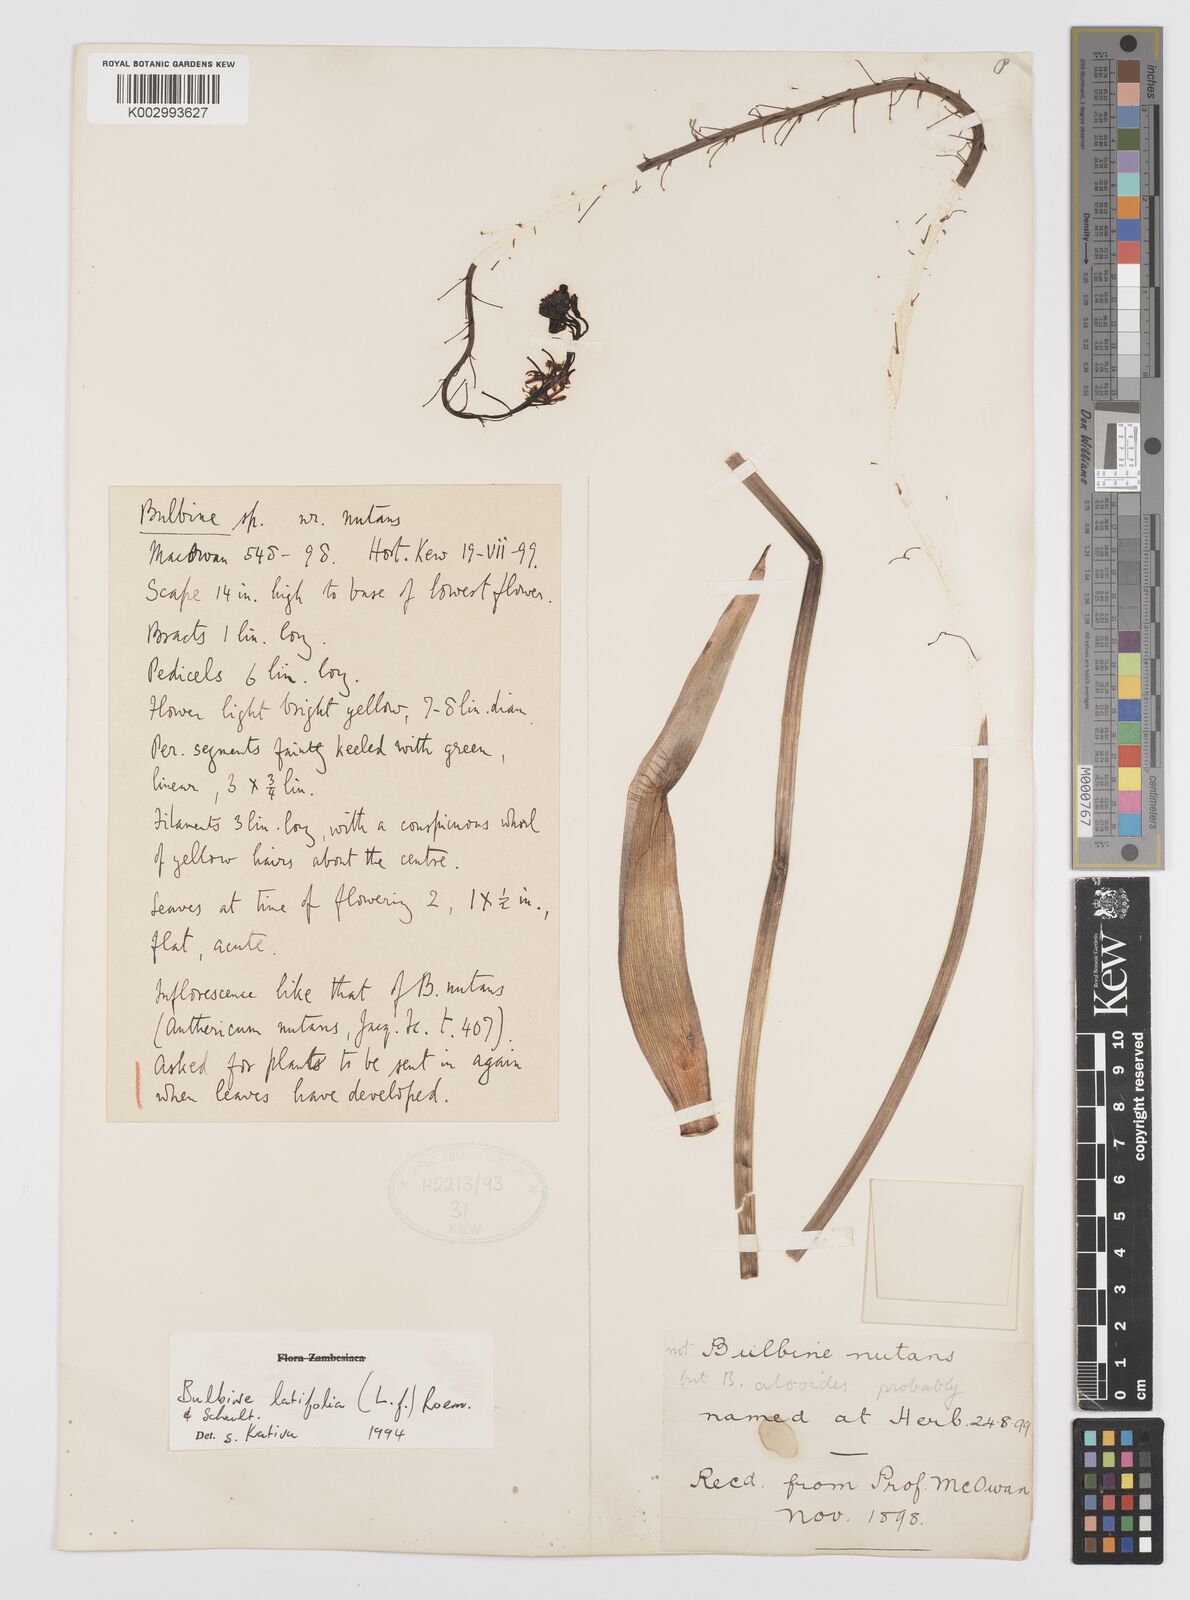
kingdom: Plantae
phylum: Tracheophyta
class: Liliopsida
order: Asparagales
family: Asphodelaceae
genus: Bulbine
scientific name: Bulbine latifolia
